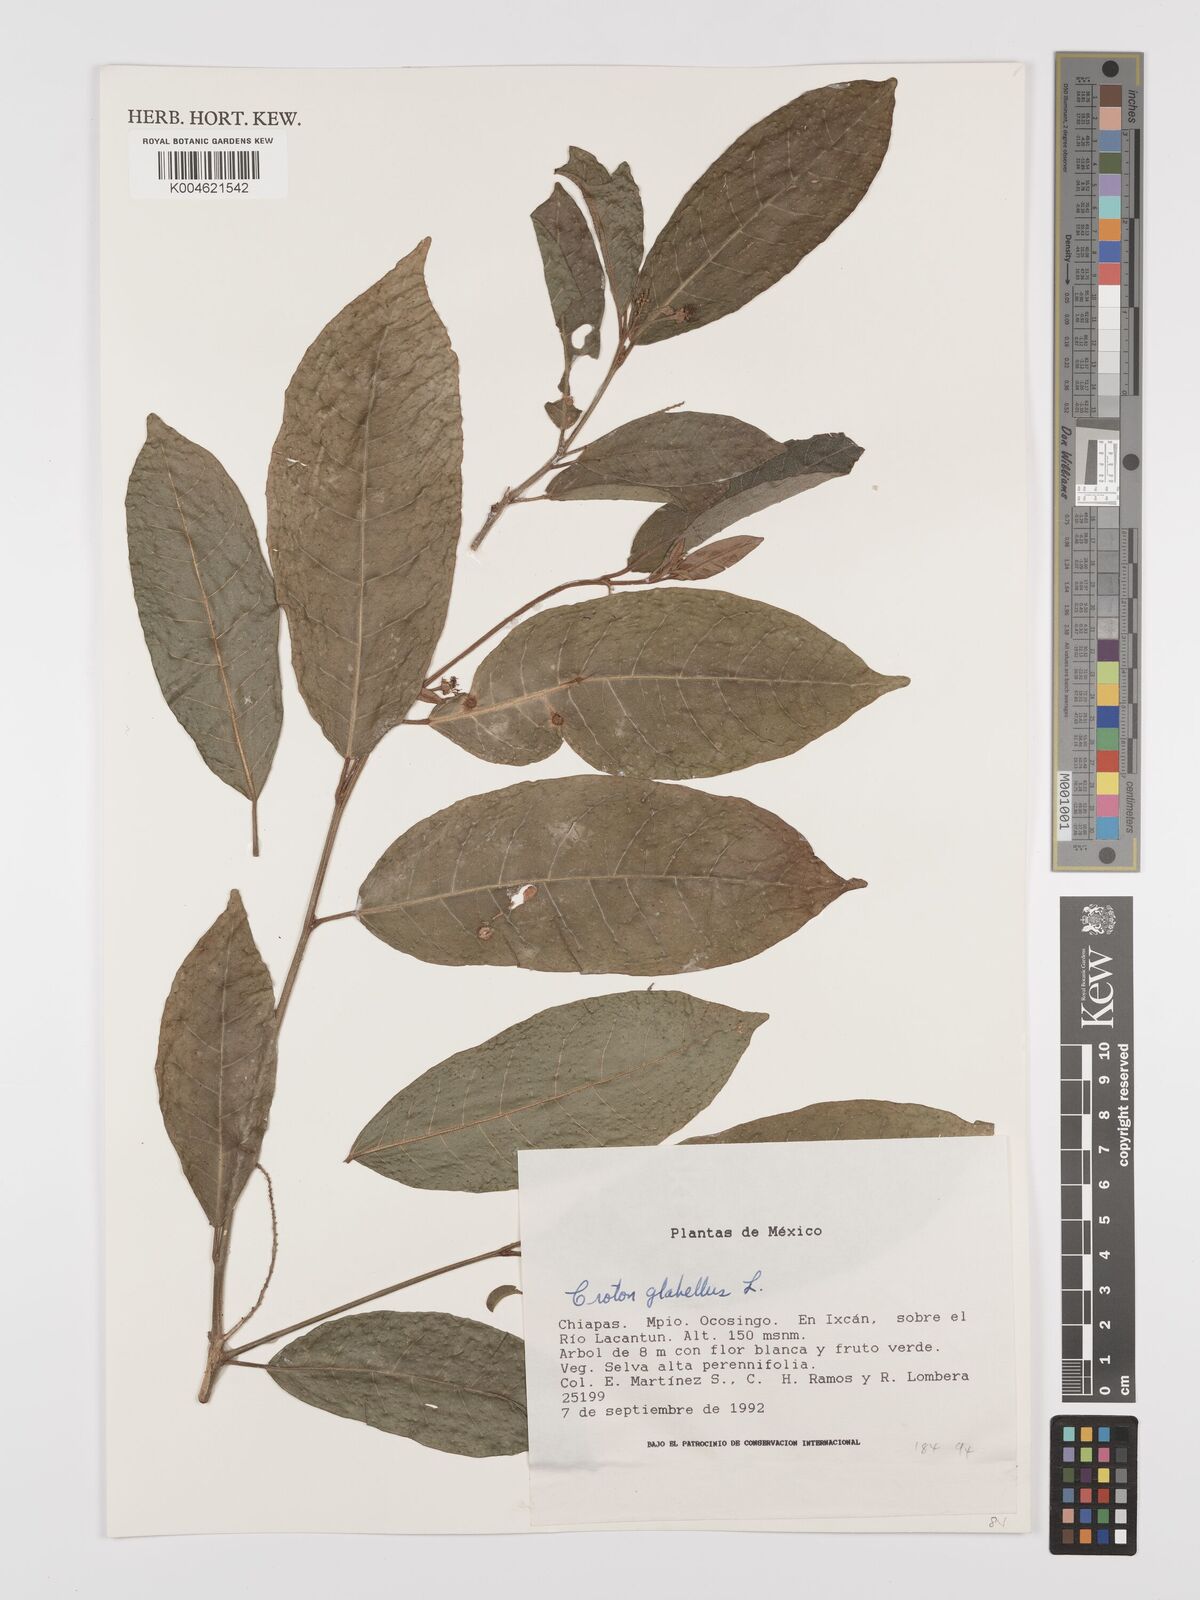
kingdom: Plantae
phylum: Tracheophyta
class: Magnoliopsida
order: Malpighiales
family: Euphorbiaceae
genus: Croton
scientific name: Croton glabellus
